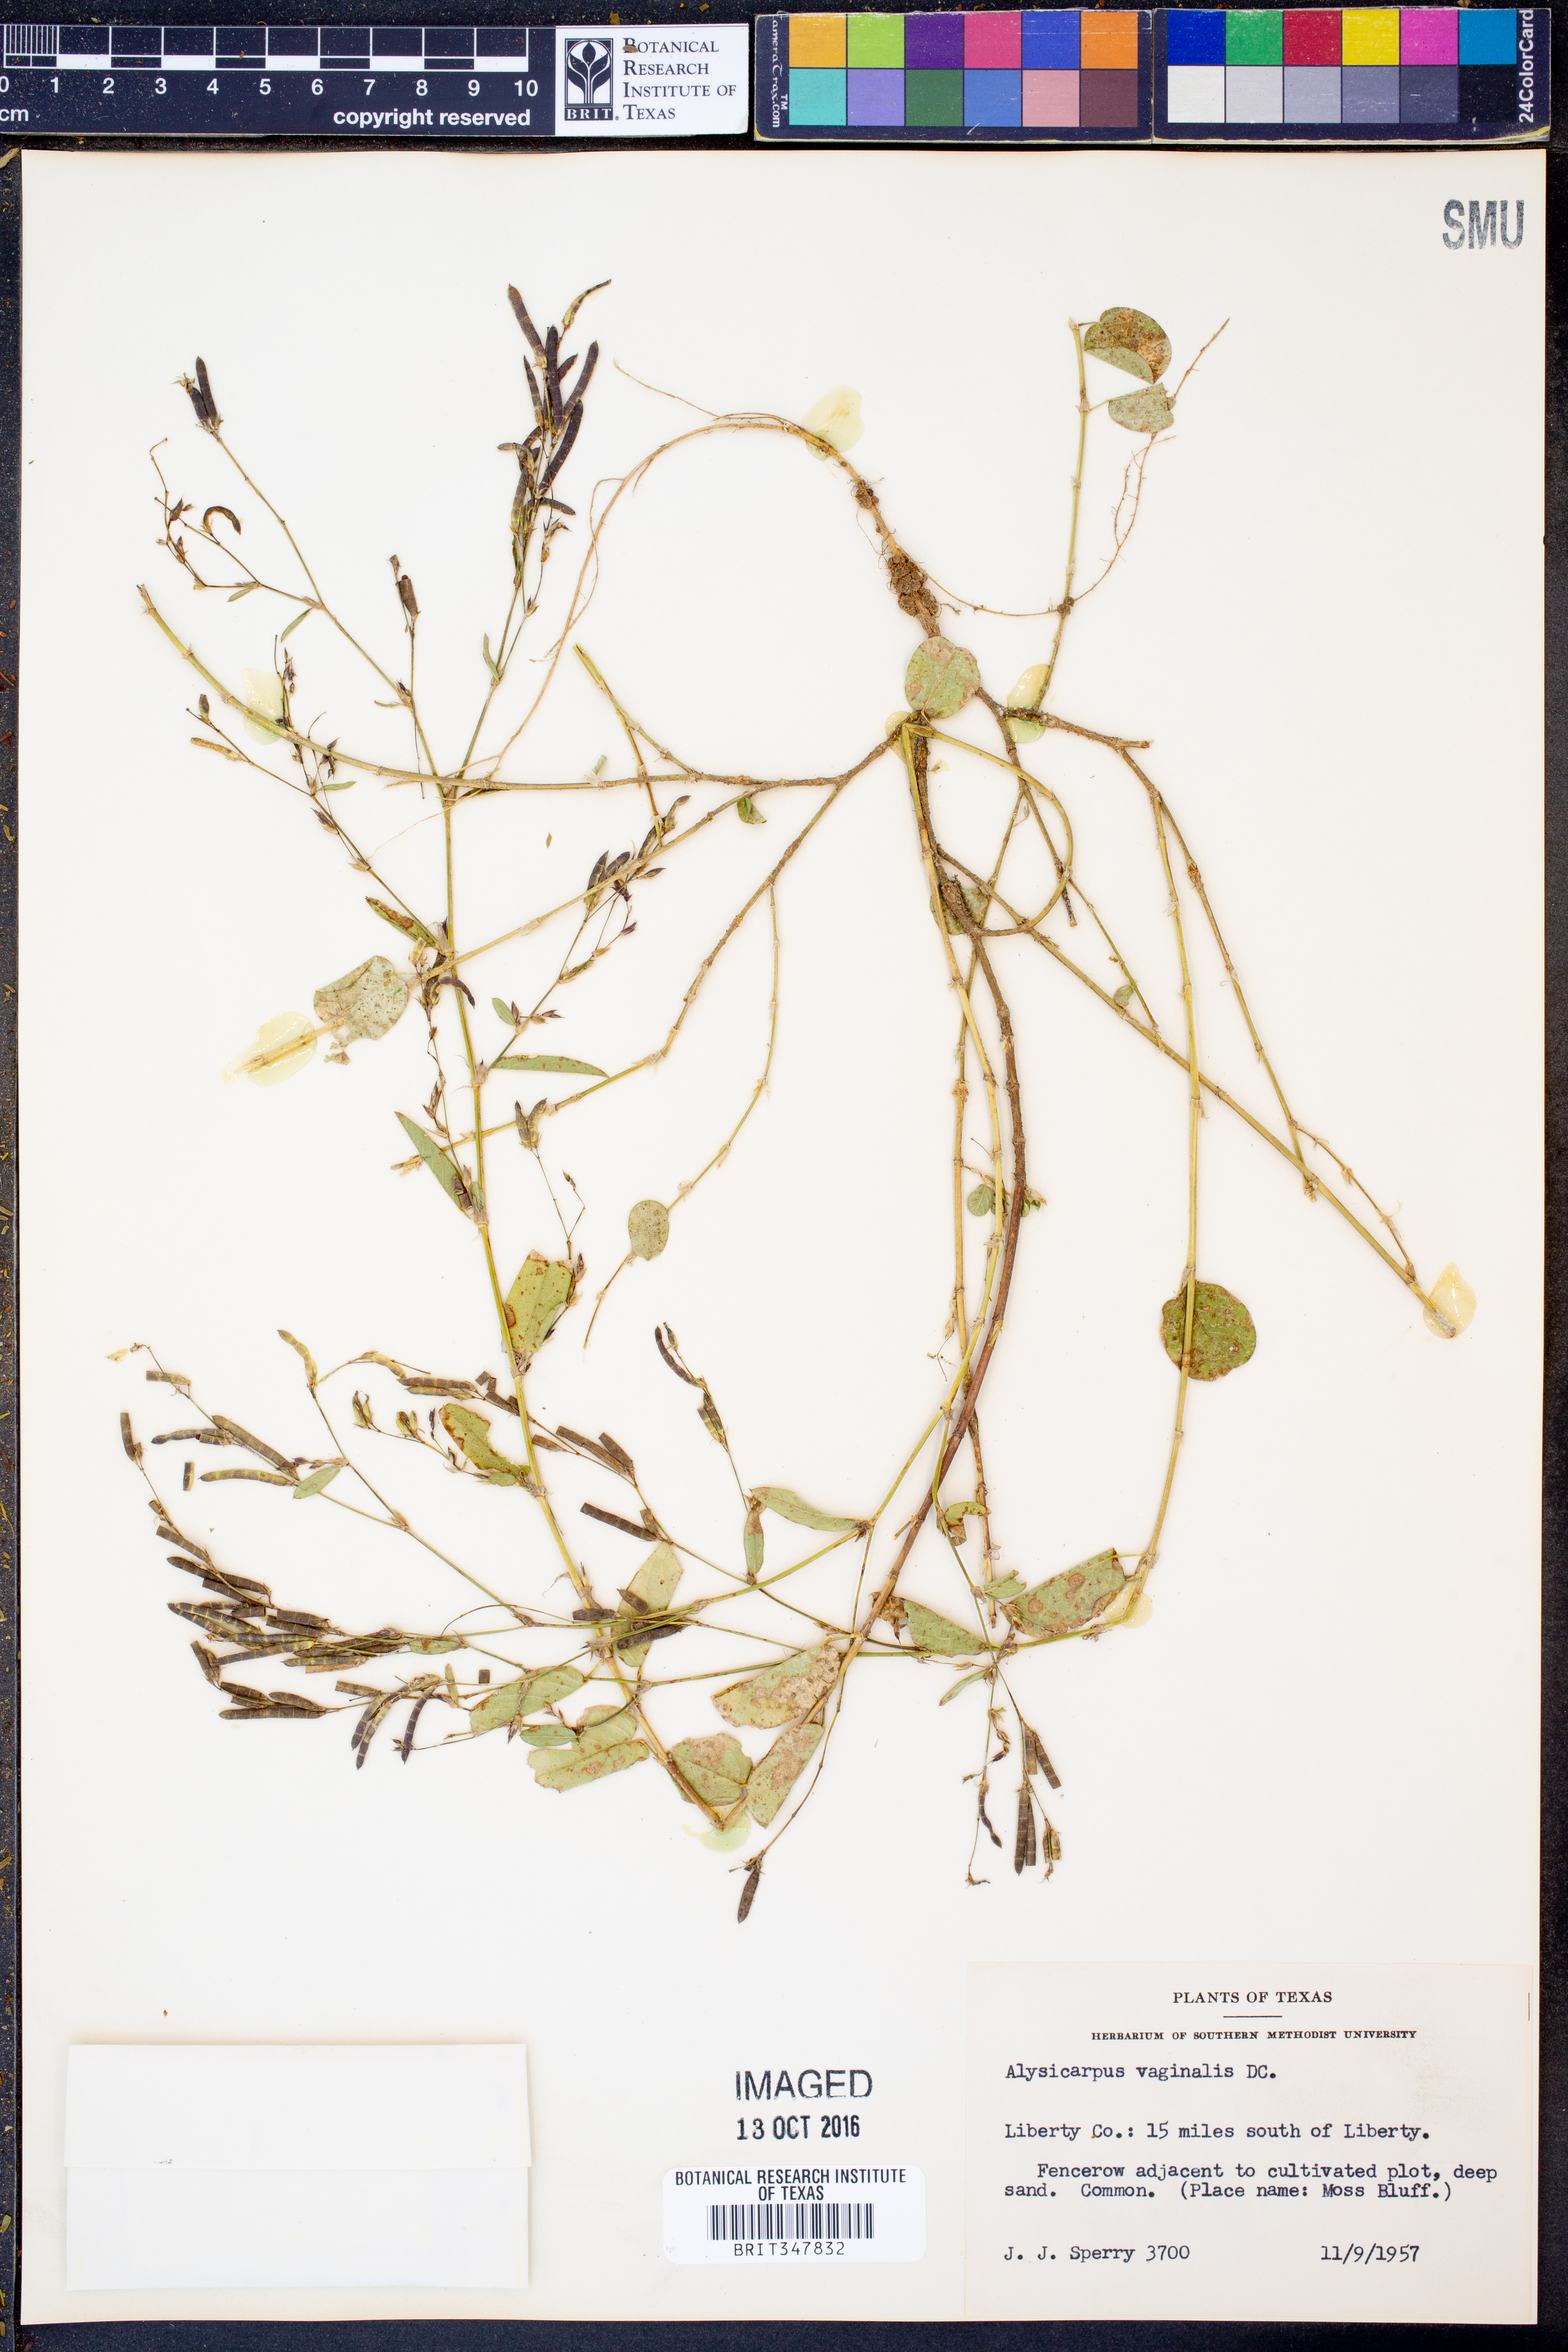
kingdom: Plantae
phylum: Tracheophyta
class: Magnoliopsida
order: Fabales
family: Fabaceae
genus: Alysicarpus
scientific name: Alysicarpus vaginalis
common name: White moneywort
